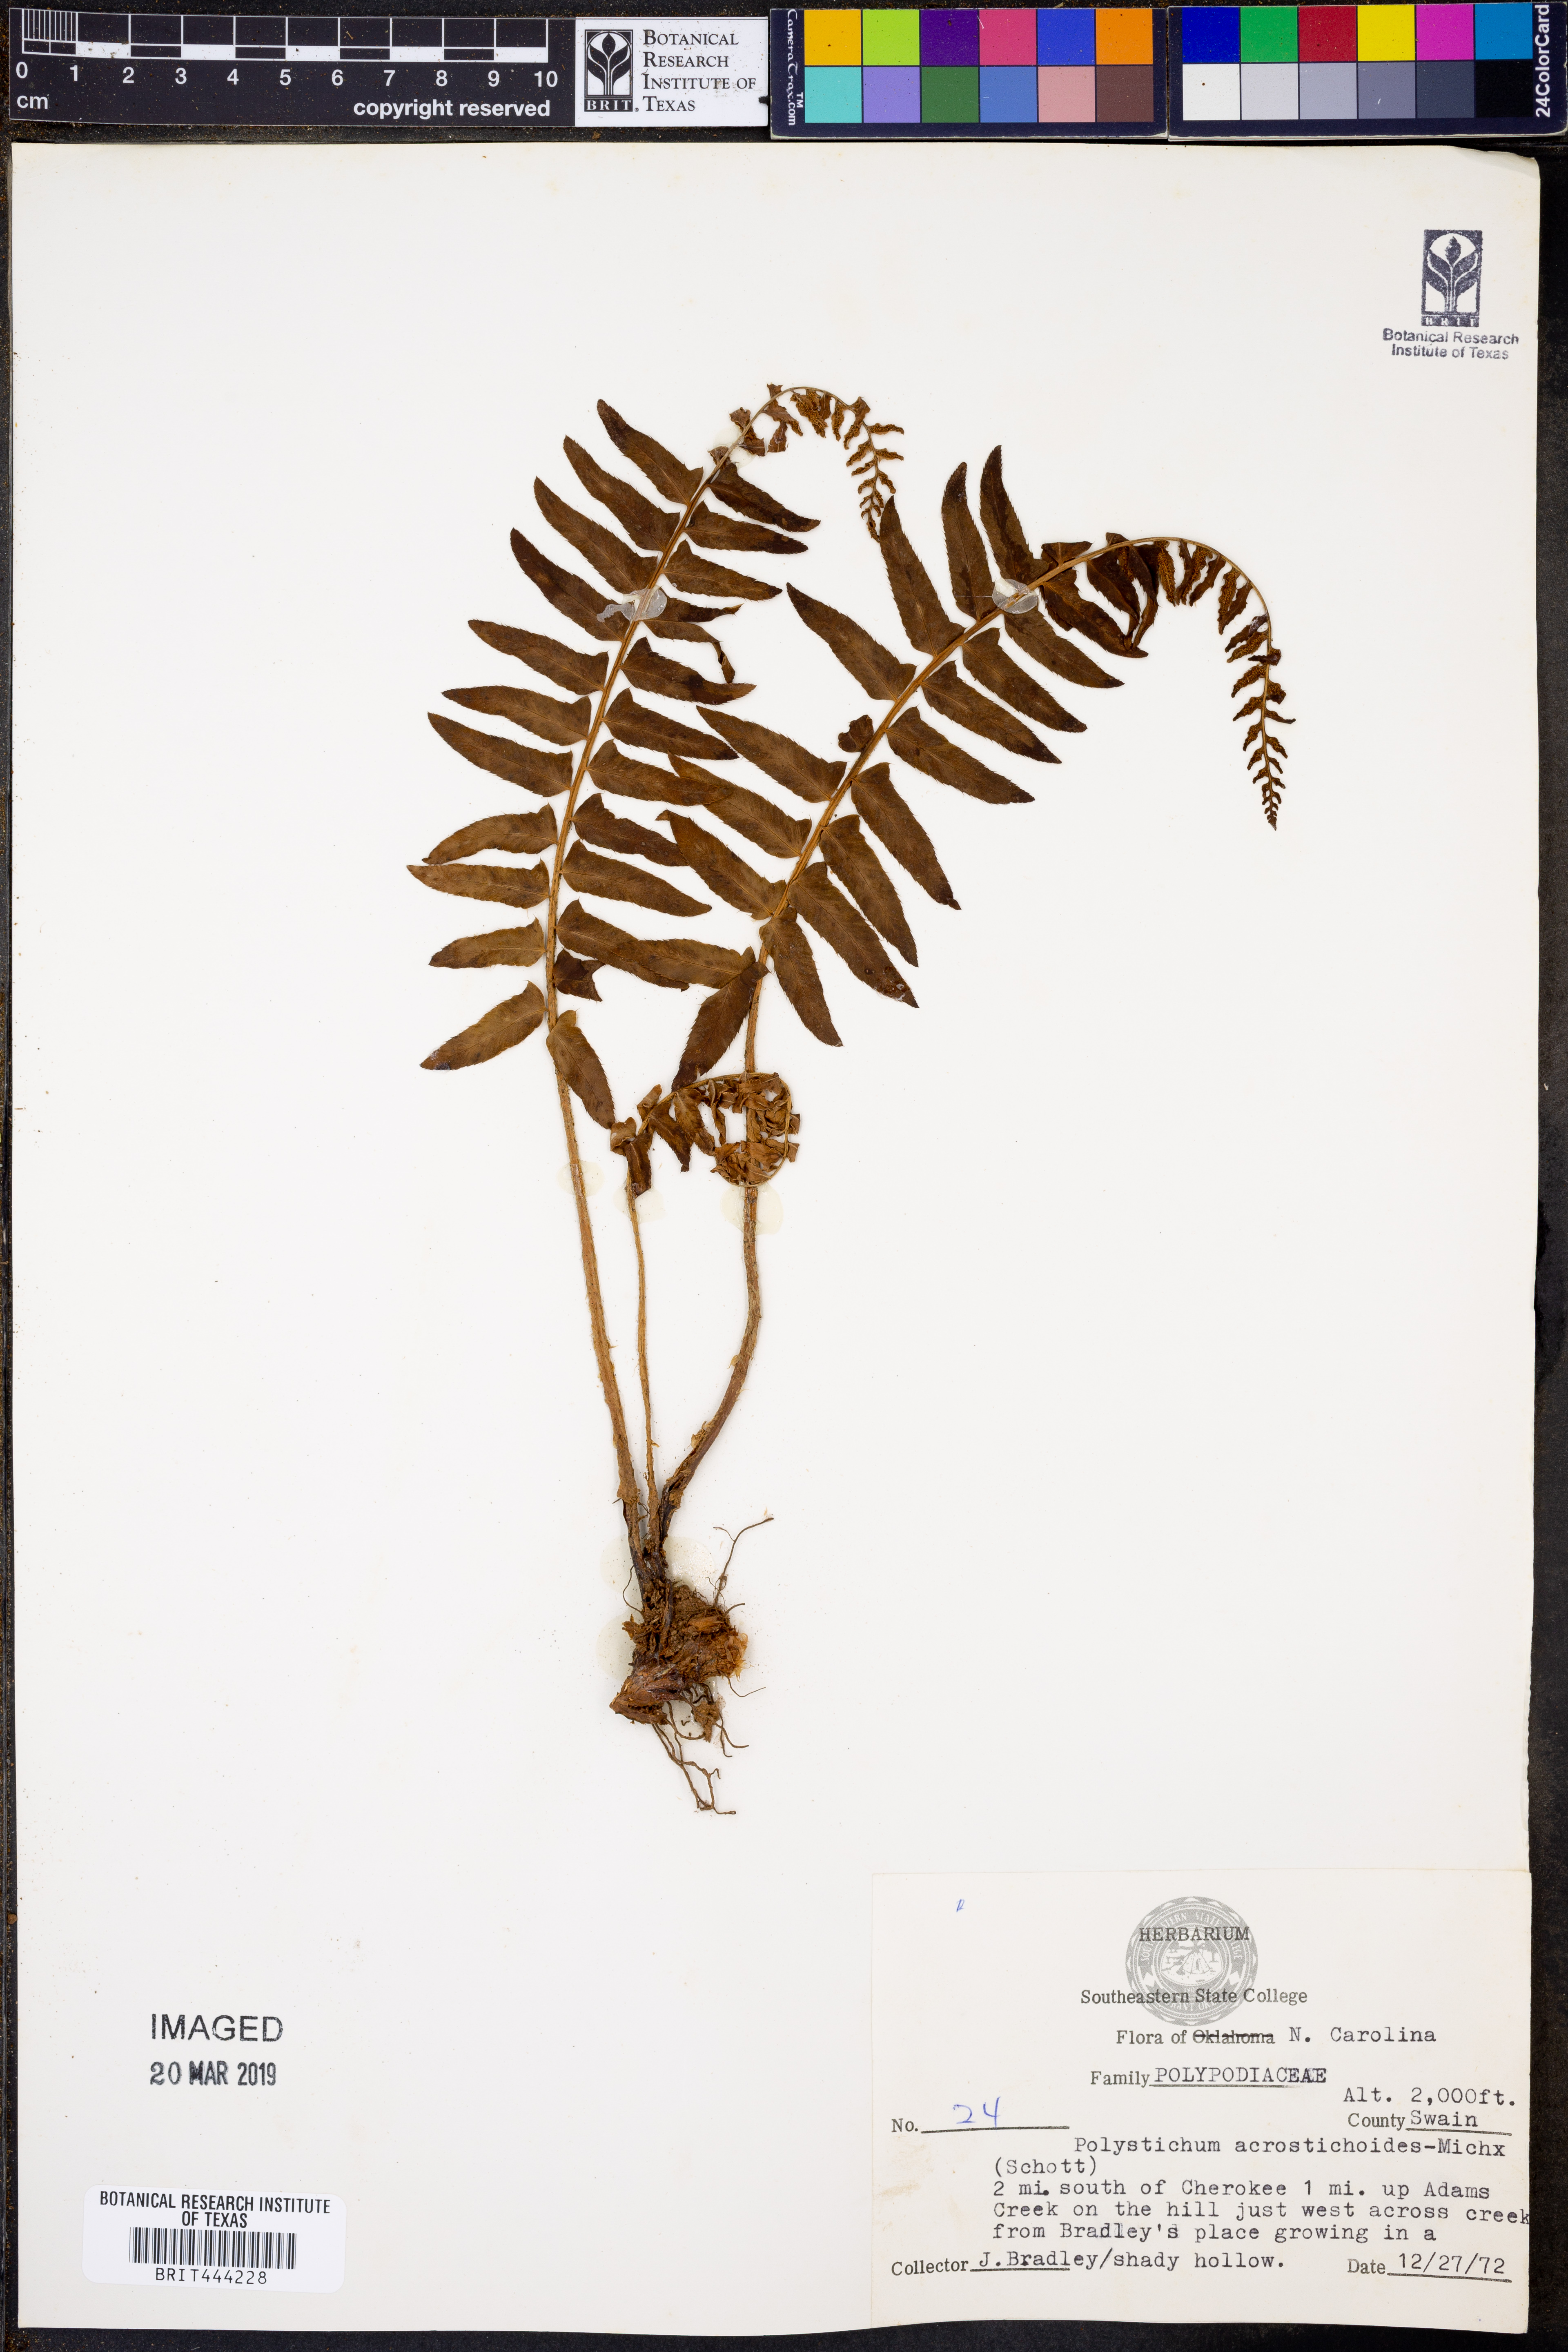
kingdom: Plantae
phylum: Tracheophyta
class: Polypodiopsida
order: Polypodiales
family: Dryopteridaceae
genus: Polystichum
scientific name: Polystichum acrostichoides
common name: Christmas fern
